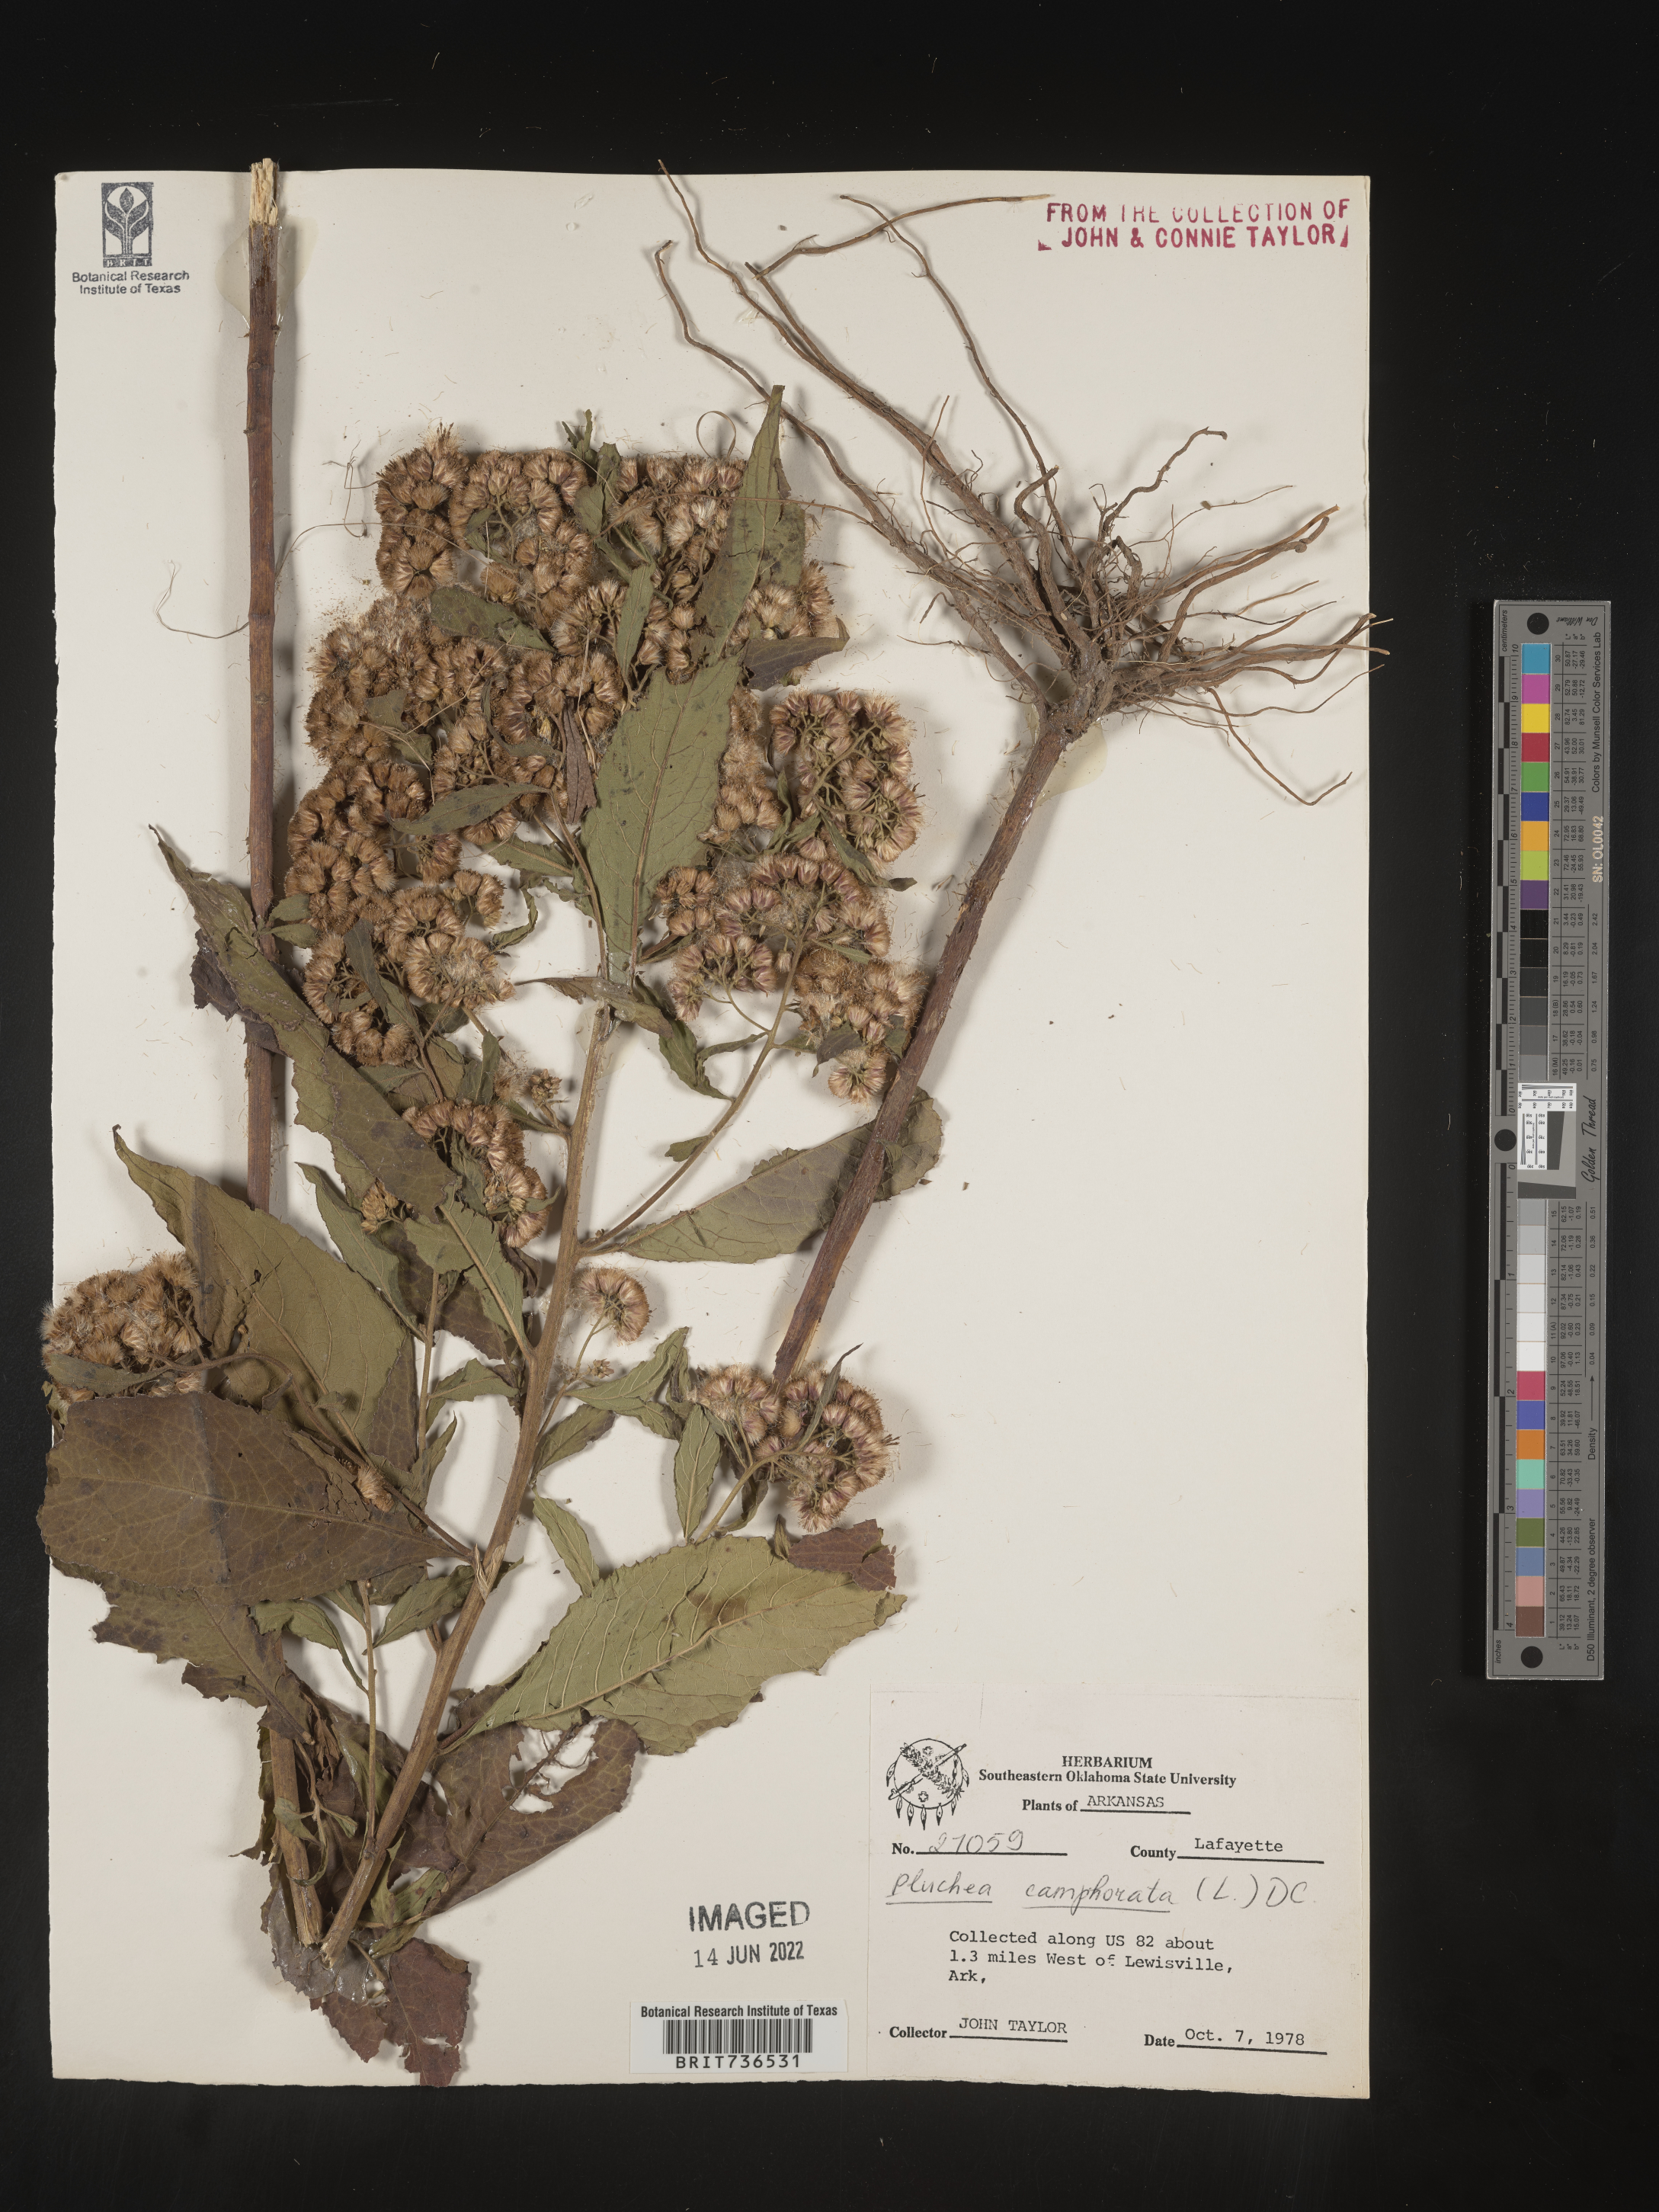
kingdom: Plantae
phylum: Tracheophyta
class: Magnoliopsida
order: Asterales
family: Asteraceae
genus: Pluchea
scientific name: Pluchea camphorata
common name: Camphor pluchea
